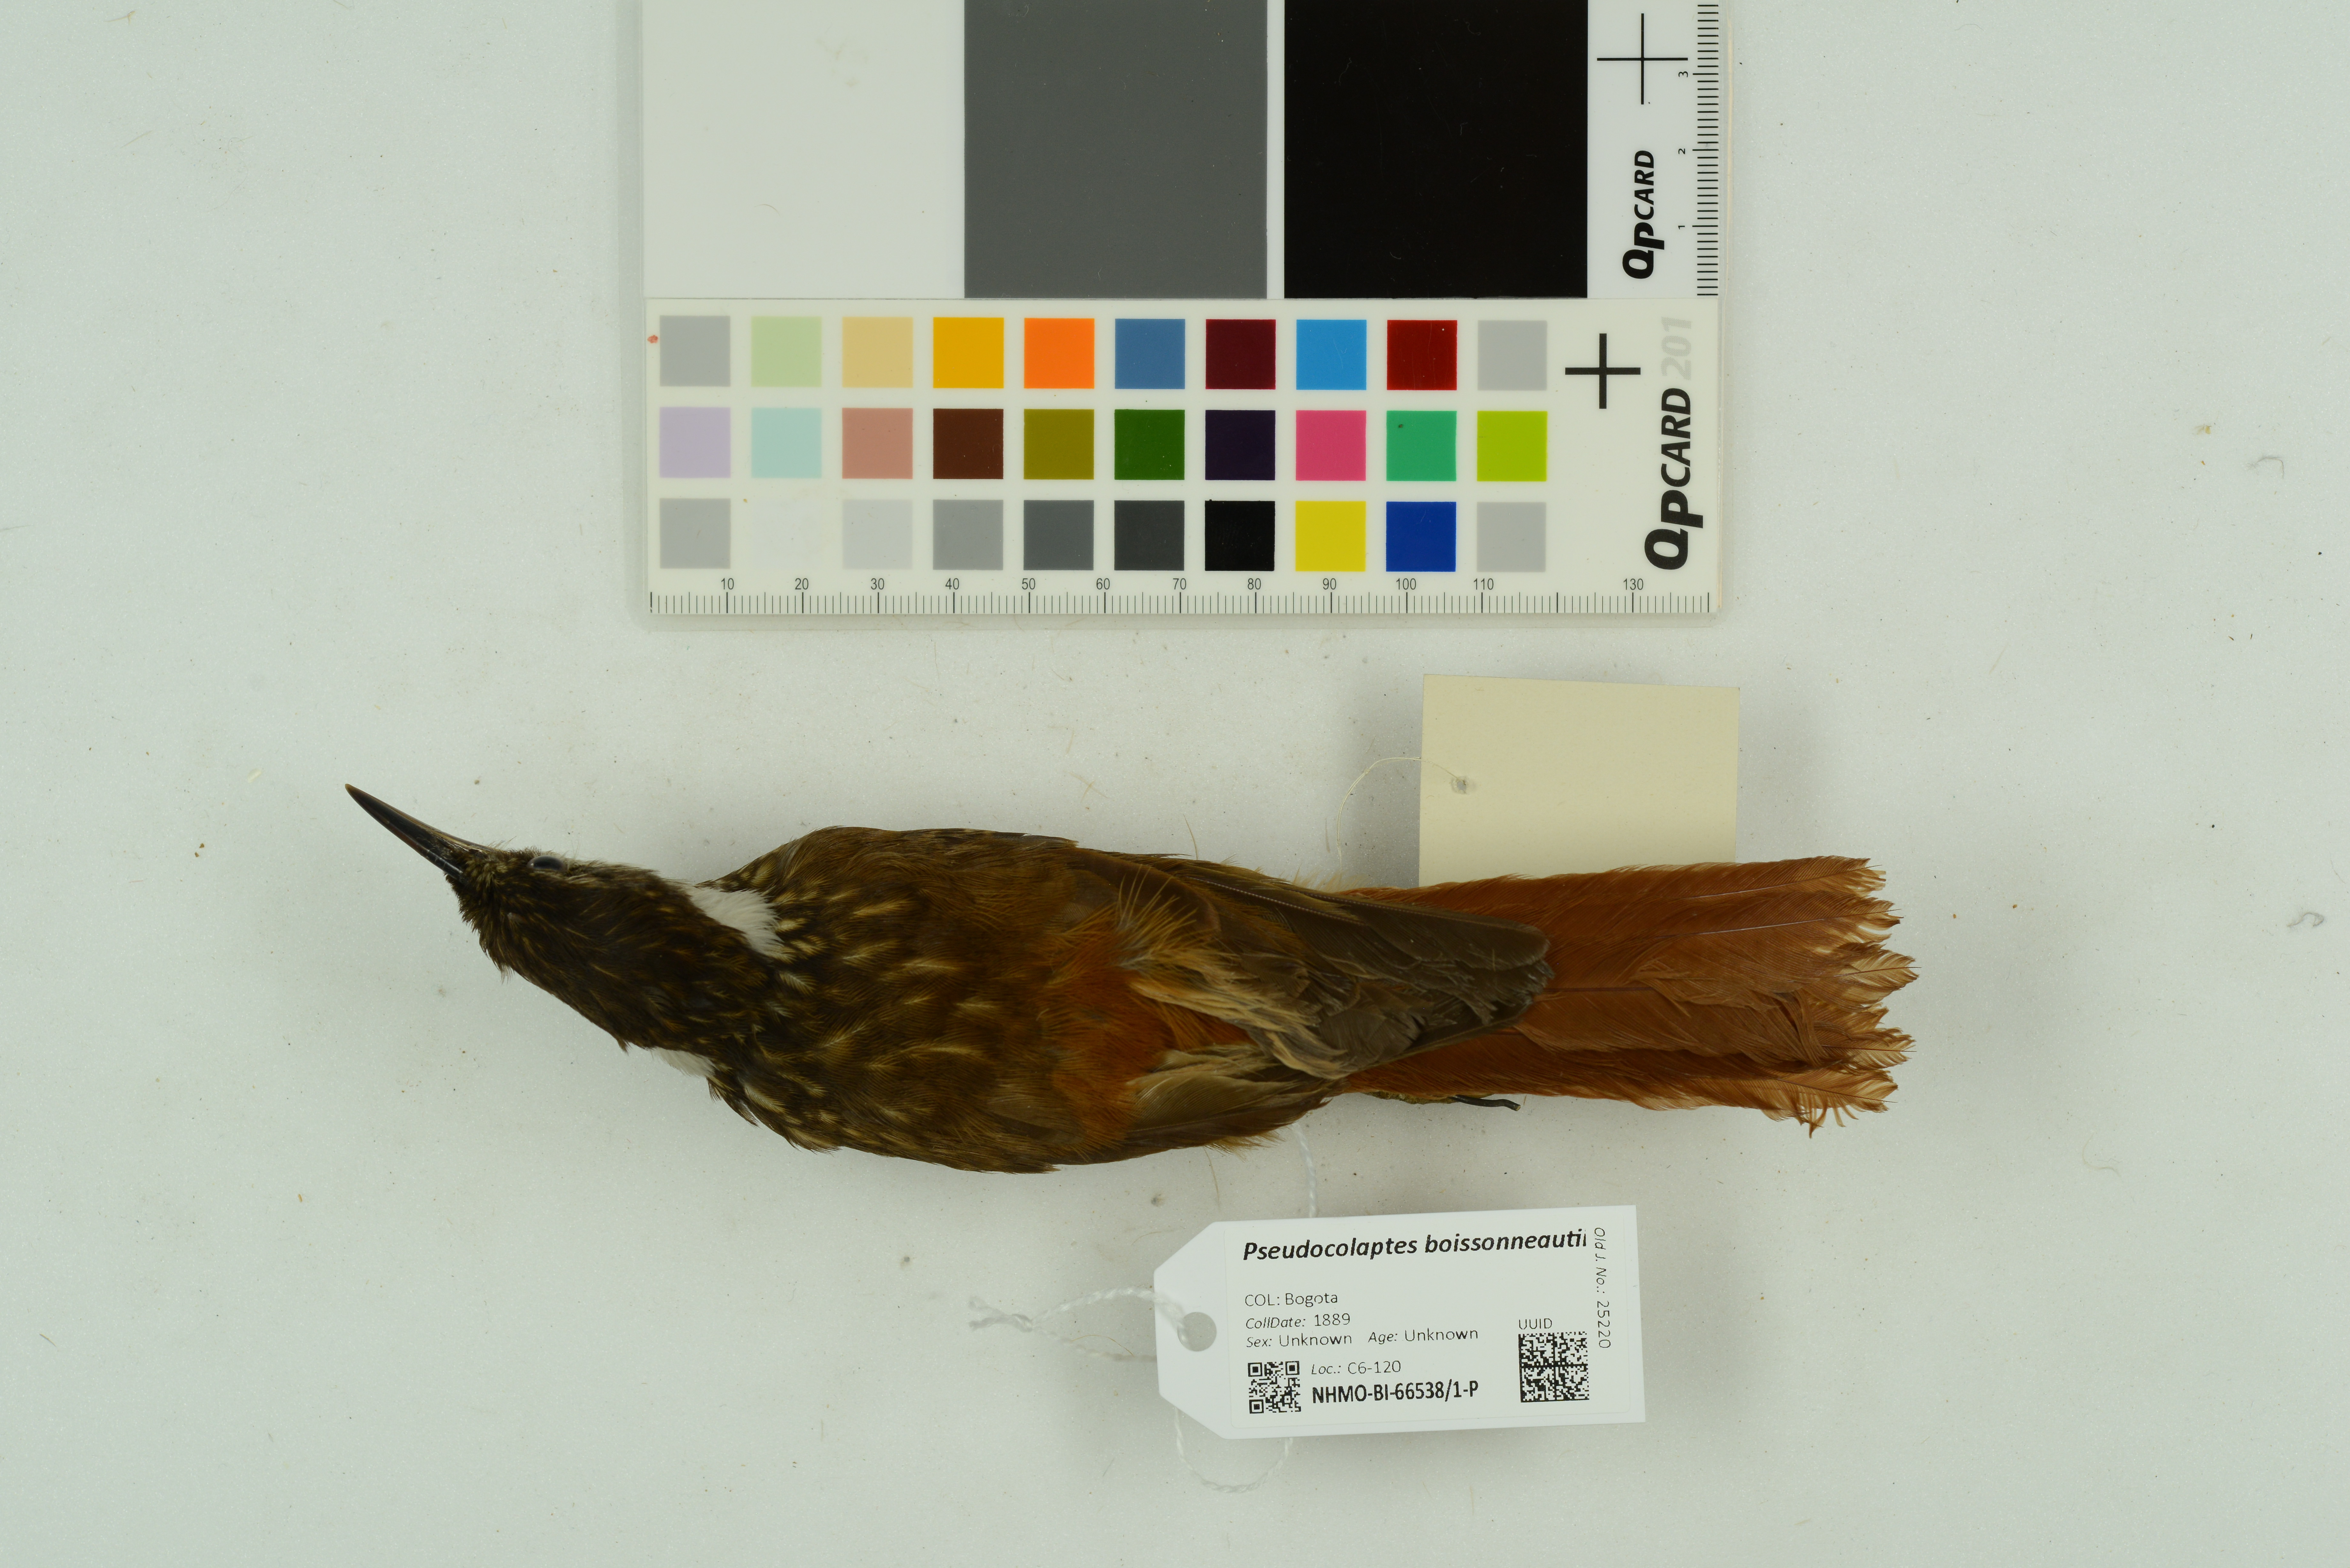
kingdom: Animalia
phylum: Chordata
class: Aves
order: Passeriformes
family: Furnariidae
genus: Pseudocolaptes
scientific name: Pseudocolaptes boissonneautii
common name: Streaked tuftedcheek
